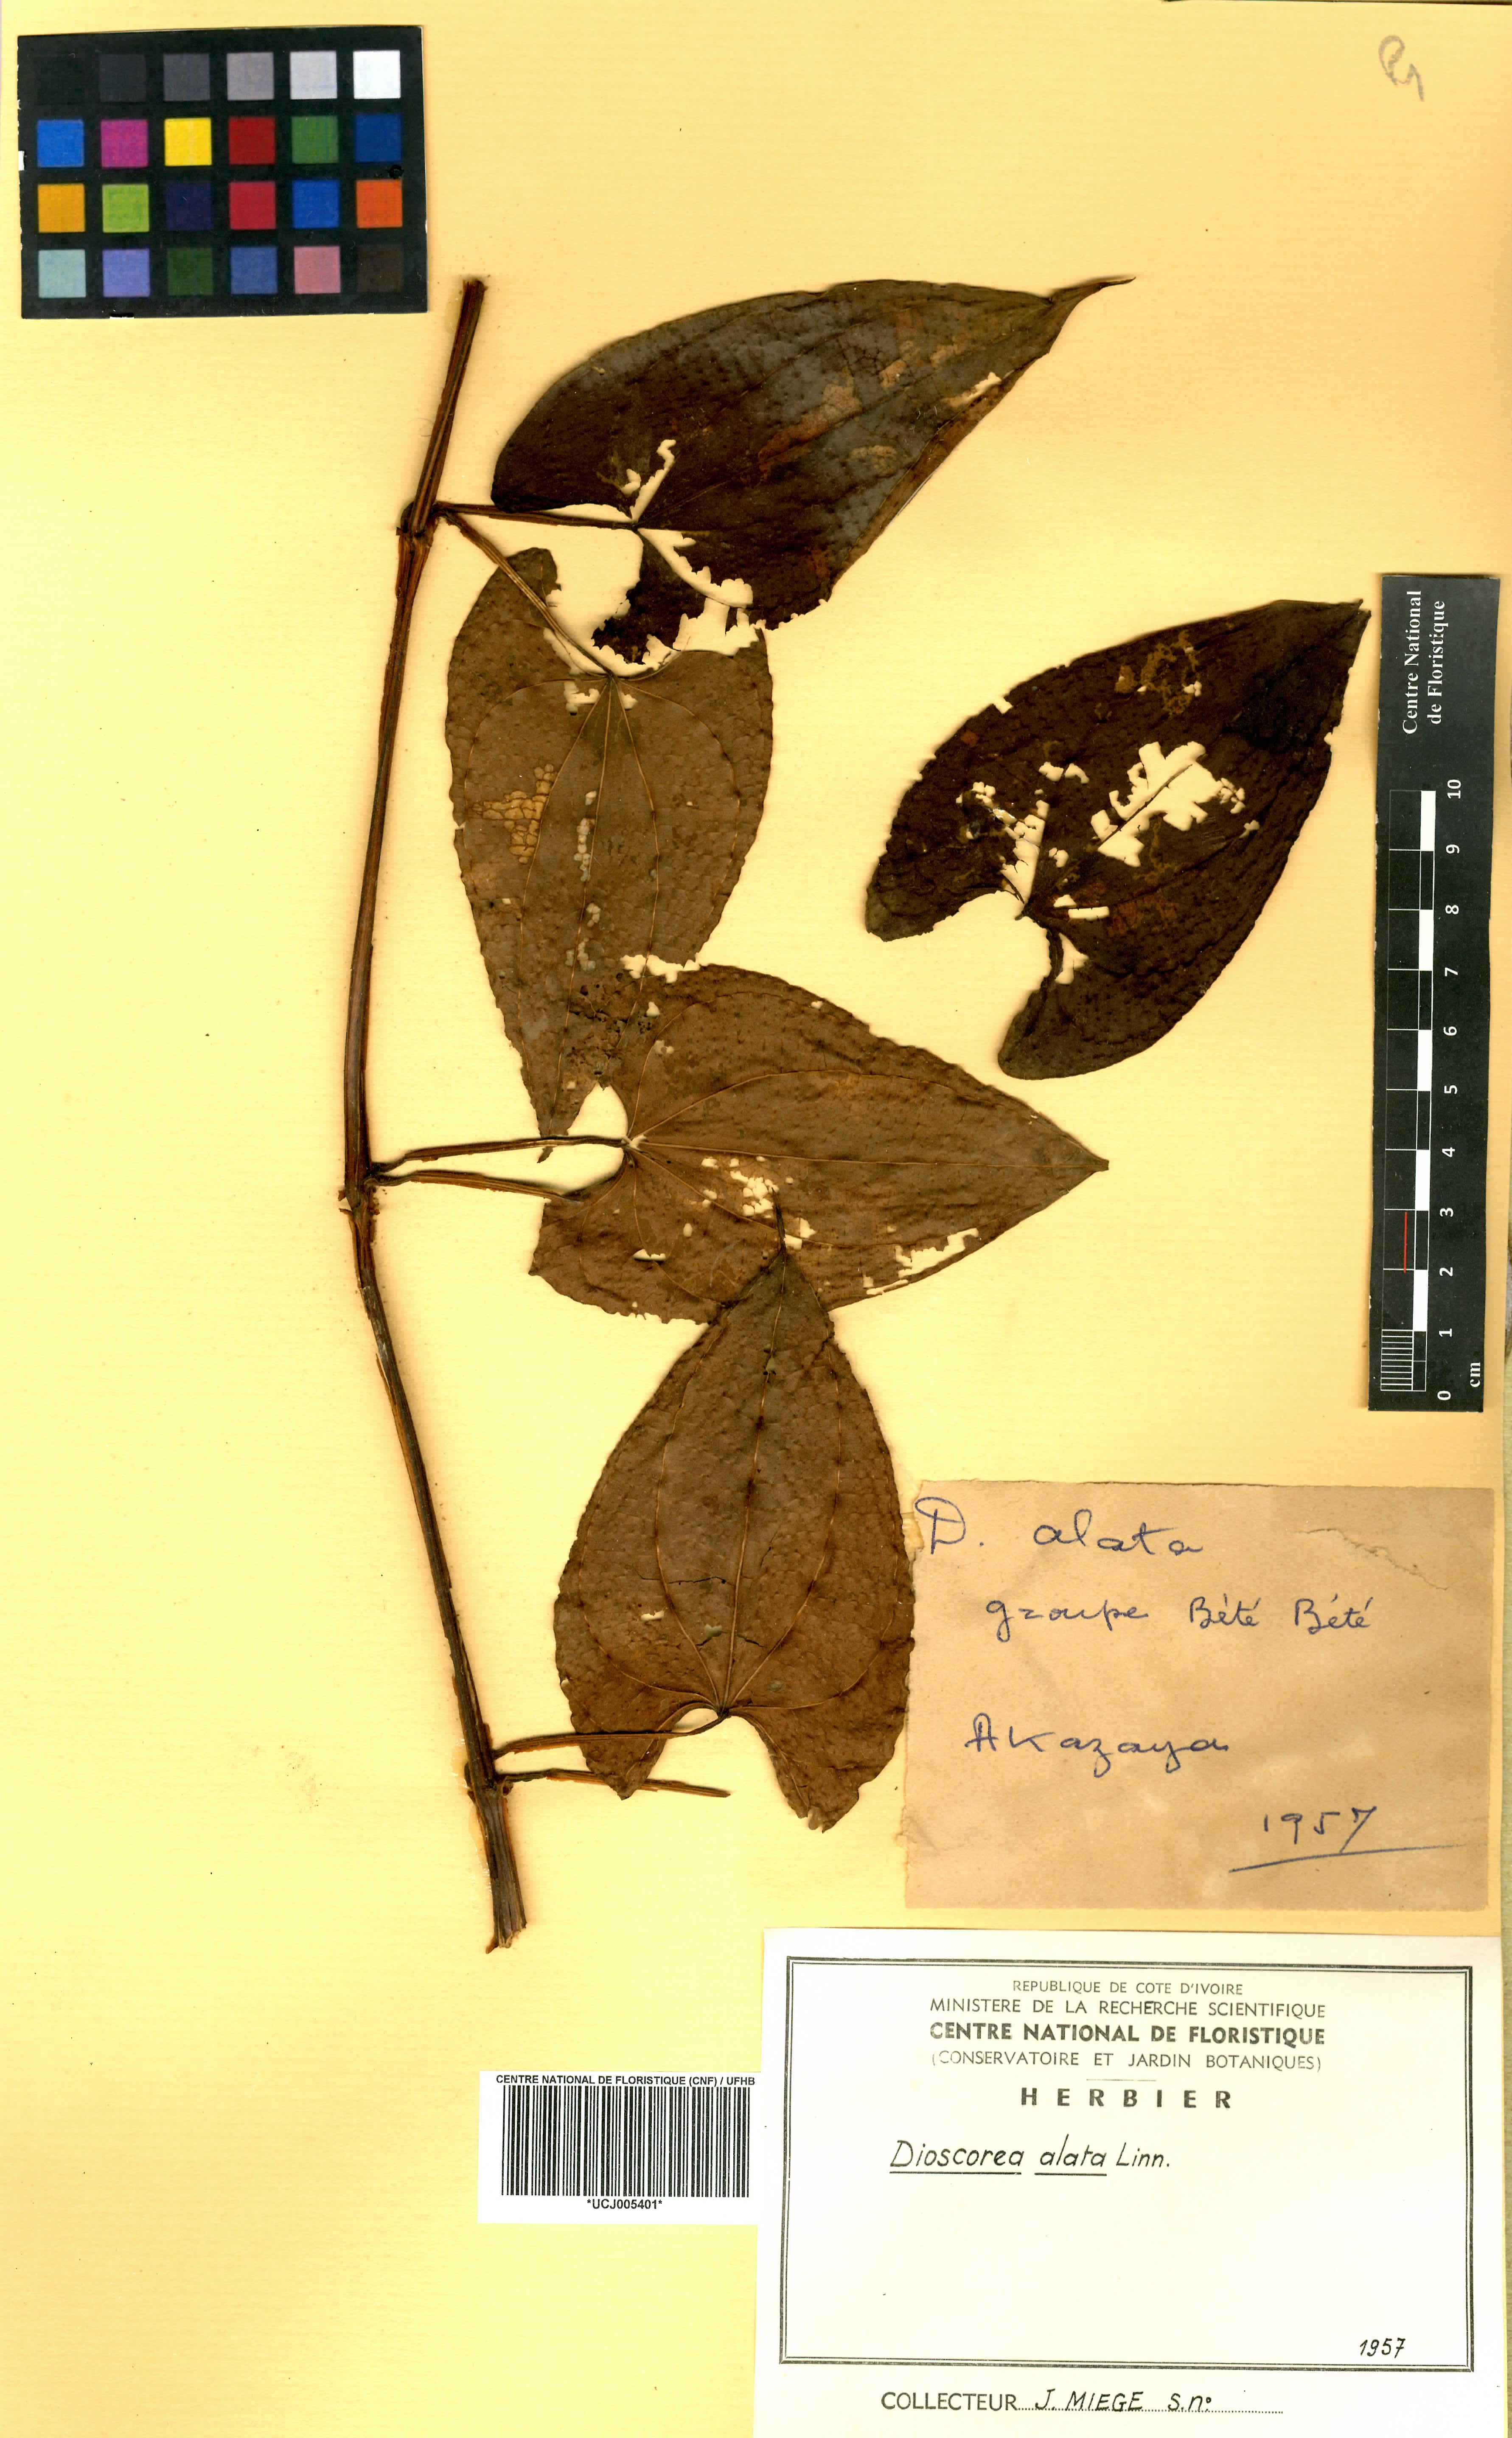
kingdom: Plantae
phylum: Tracheophyta
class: Liliopsida
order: Dioscoreales
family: Dioscoreaceae
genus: Dioscorea
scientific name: Dioscorea alata
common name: Water yam
